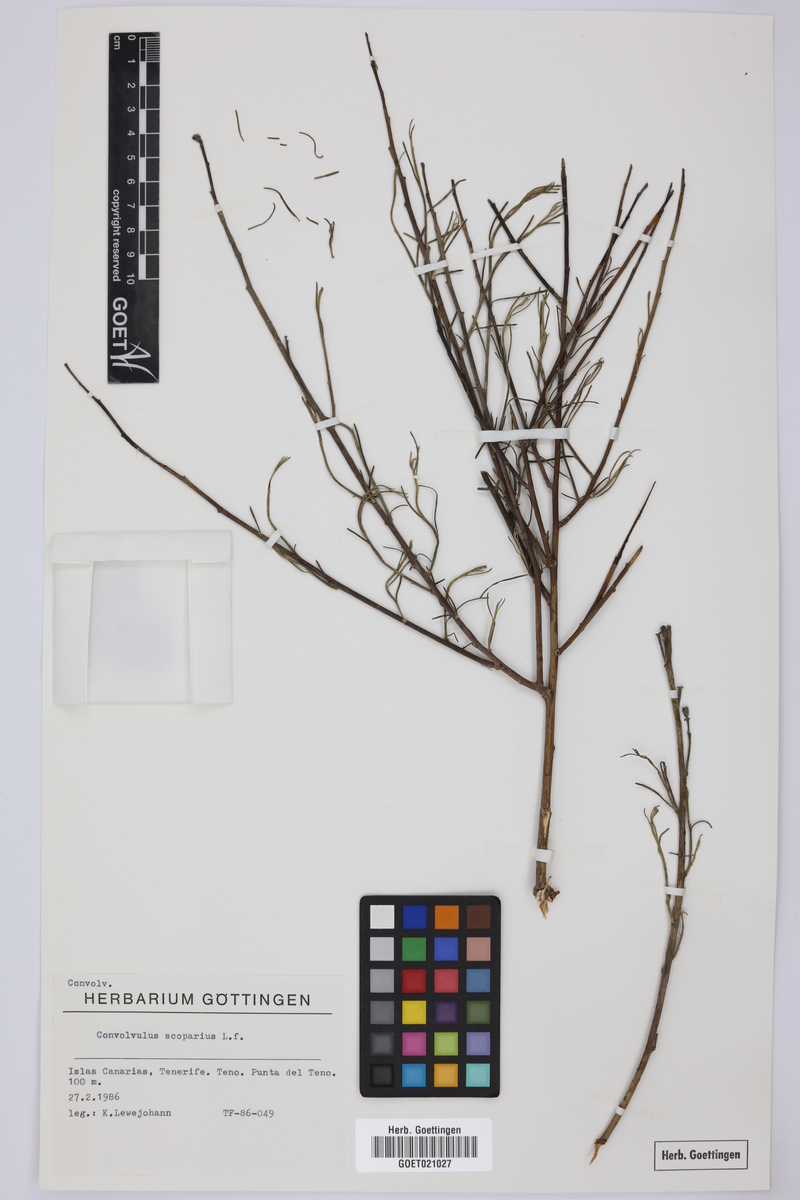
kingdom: Plantae
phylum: Tracheophyta
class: Magnoliopsida
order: Solanales
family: Convolvulaceae
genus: Convolvulus
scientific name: Convolvulus scoparius
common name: Lignum rhodium
